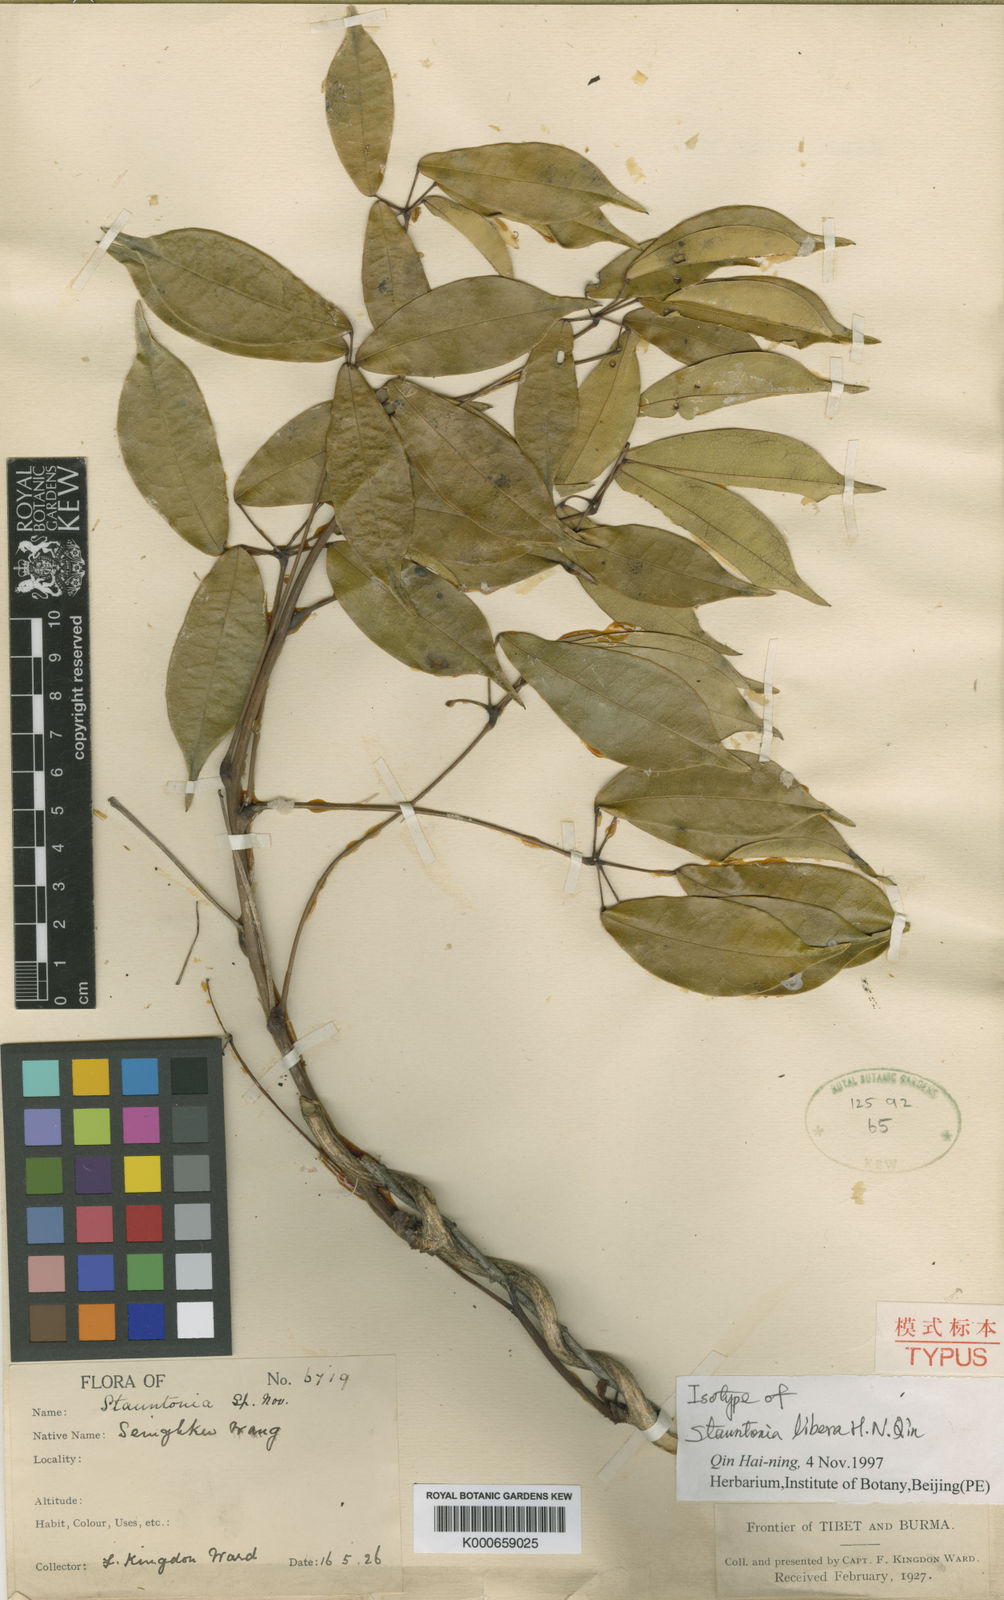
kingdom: Plantae
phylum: Tracheophyta
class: Magnoliopsida
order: Ranunculales
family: Lardizabalaceae
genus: Stauntonia
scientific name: Stauntonia libera
